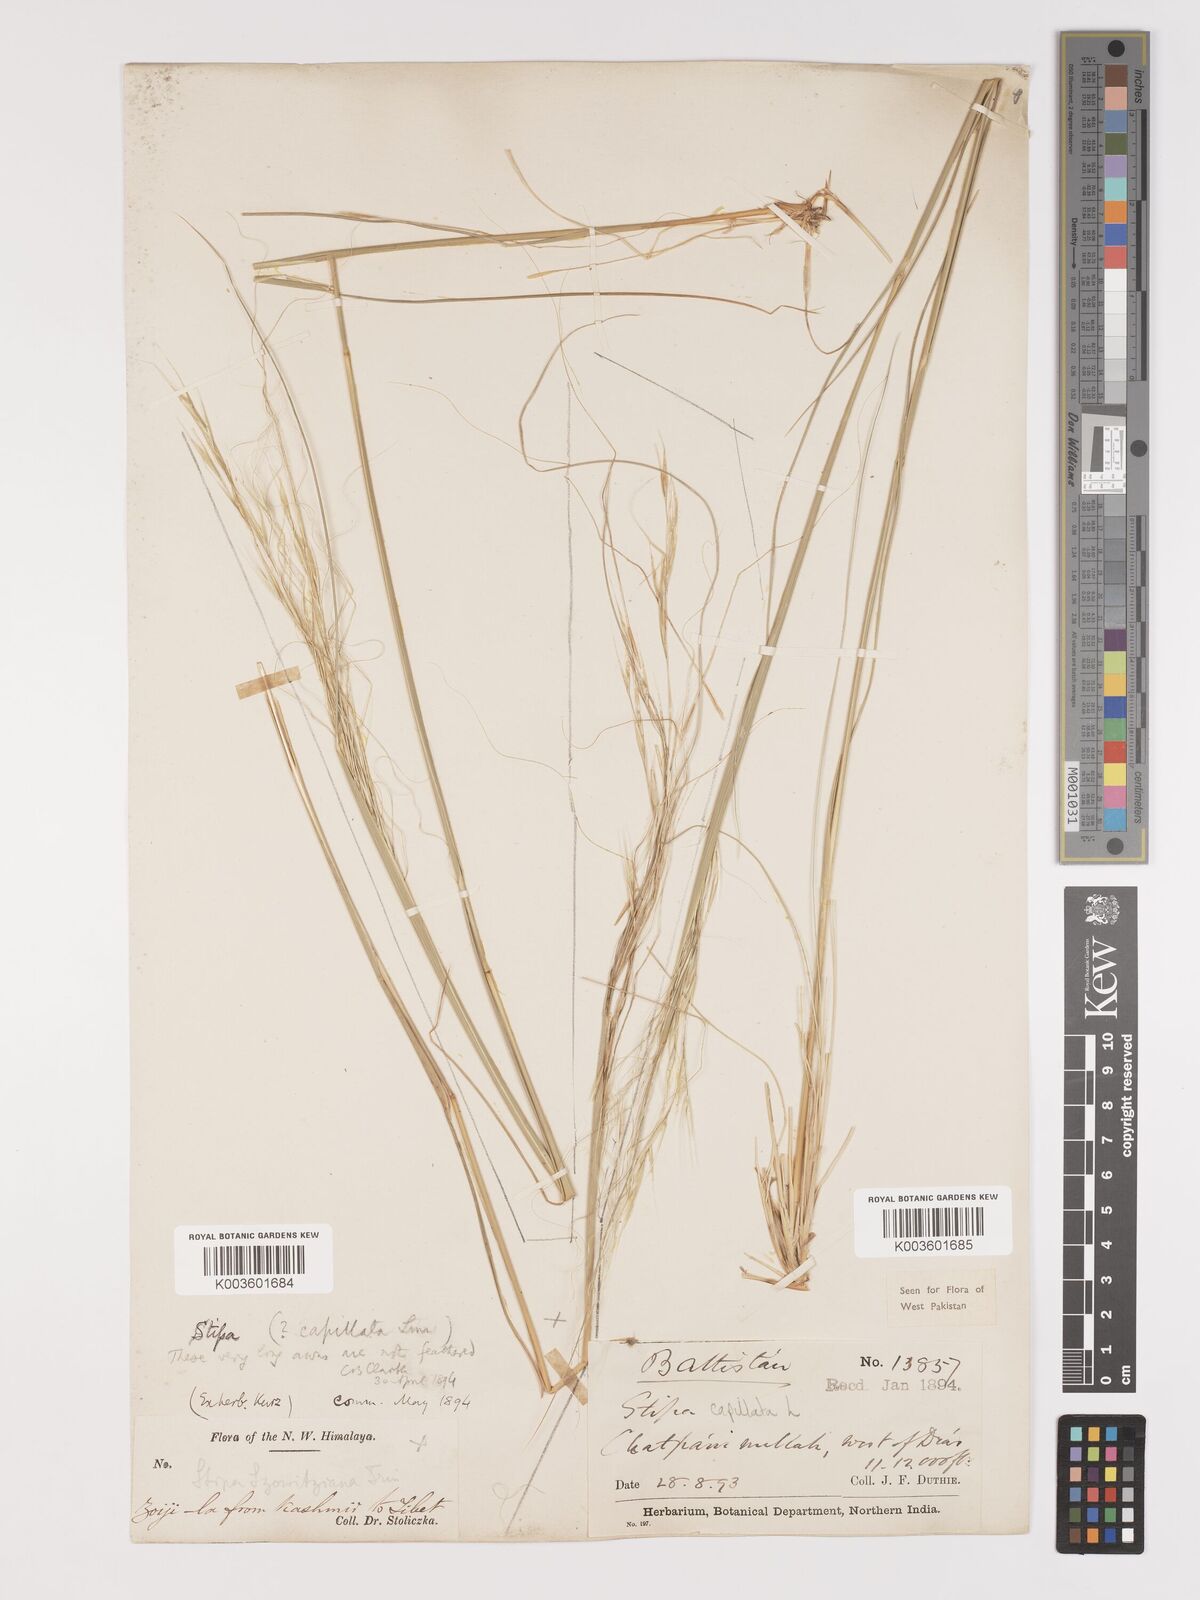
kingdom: Plantae
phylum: Tracheophyta
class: Liliopsida
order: Poales
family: Poaceae
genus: Stipa
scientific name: Stipa capillata
